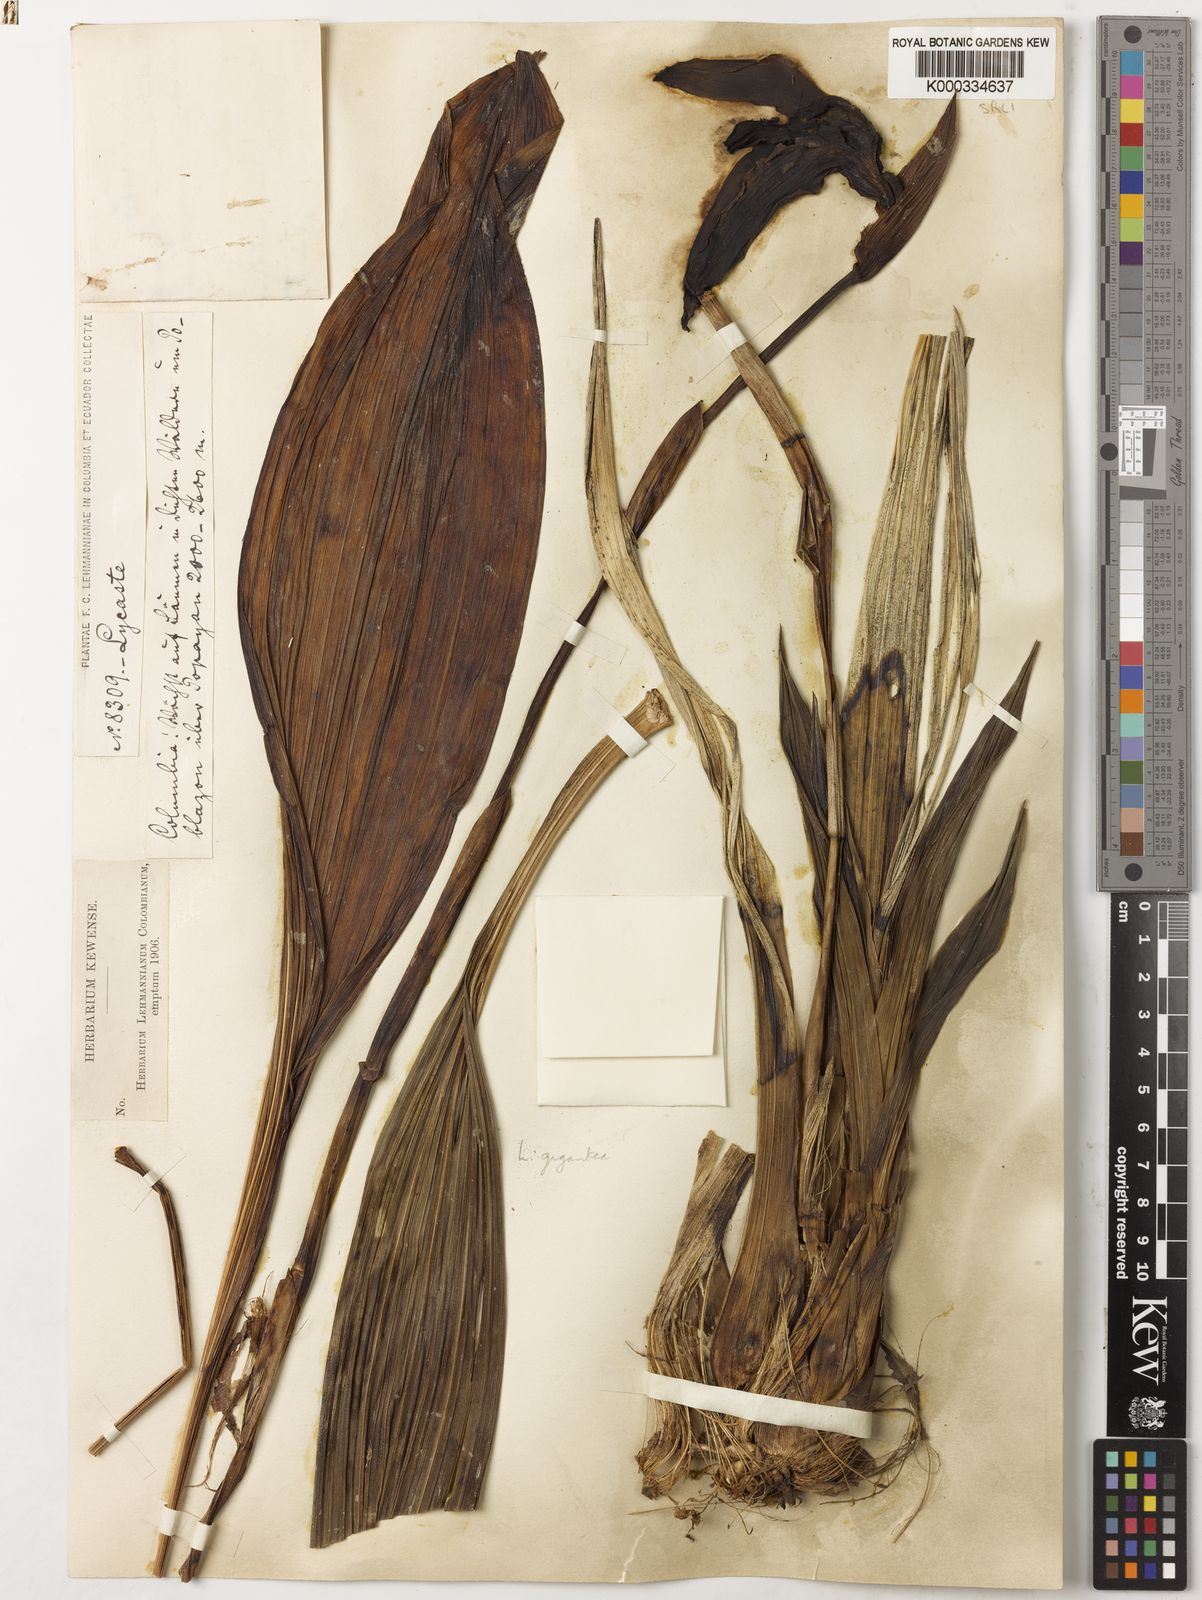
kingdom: Plantae
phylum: Tracheophyta
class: Liliopsida
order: Asparagales
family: Orchidaceae
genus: Ida
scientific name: Ida gigantea
